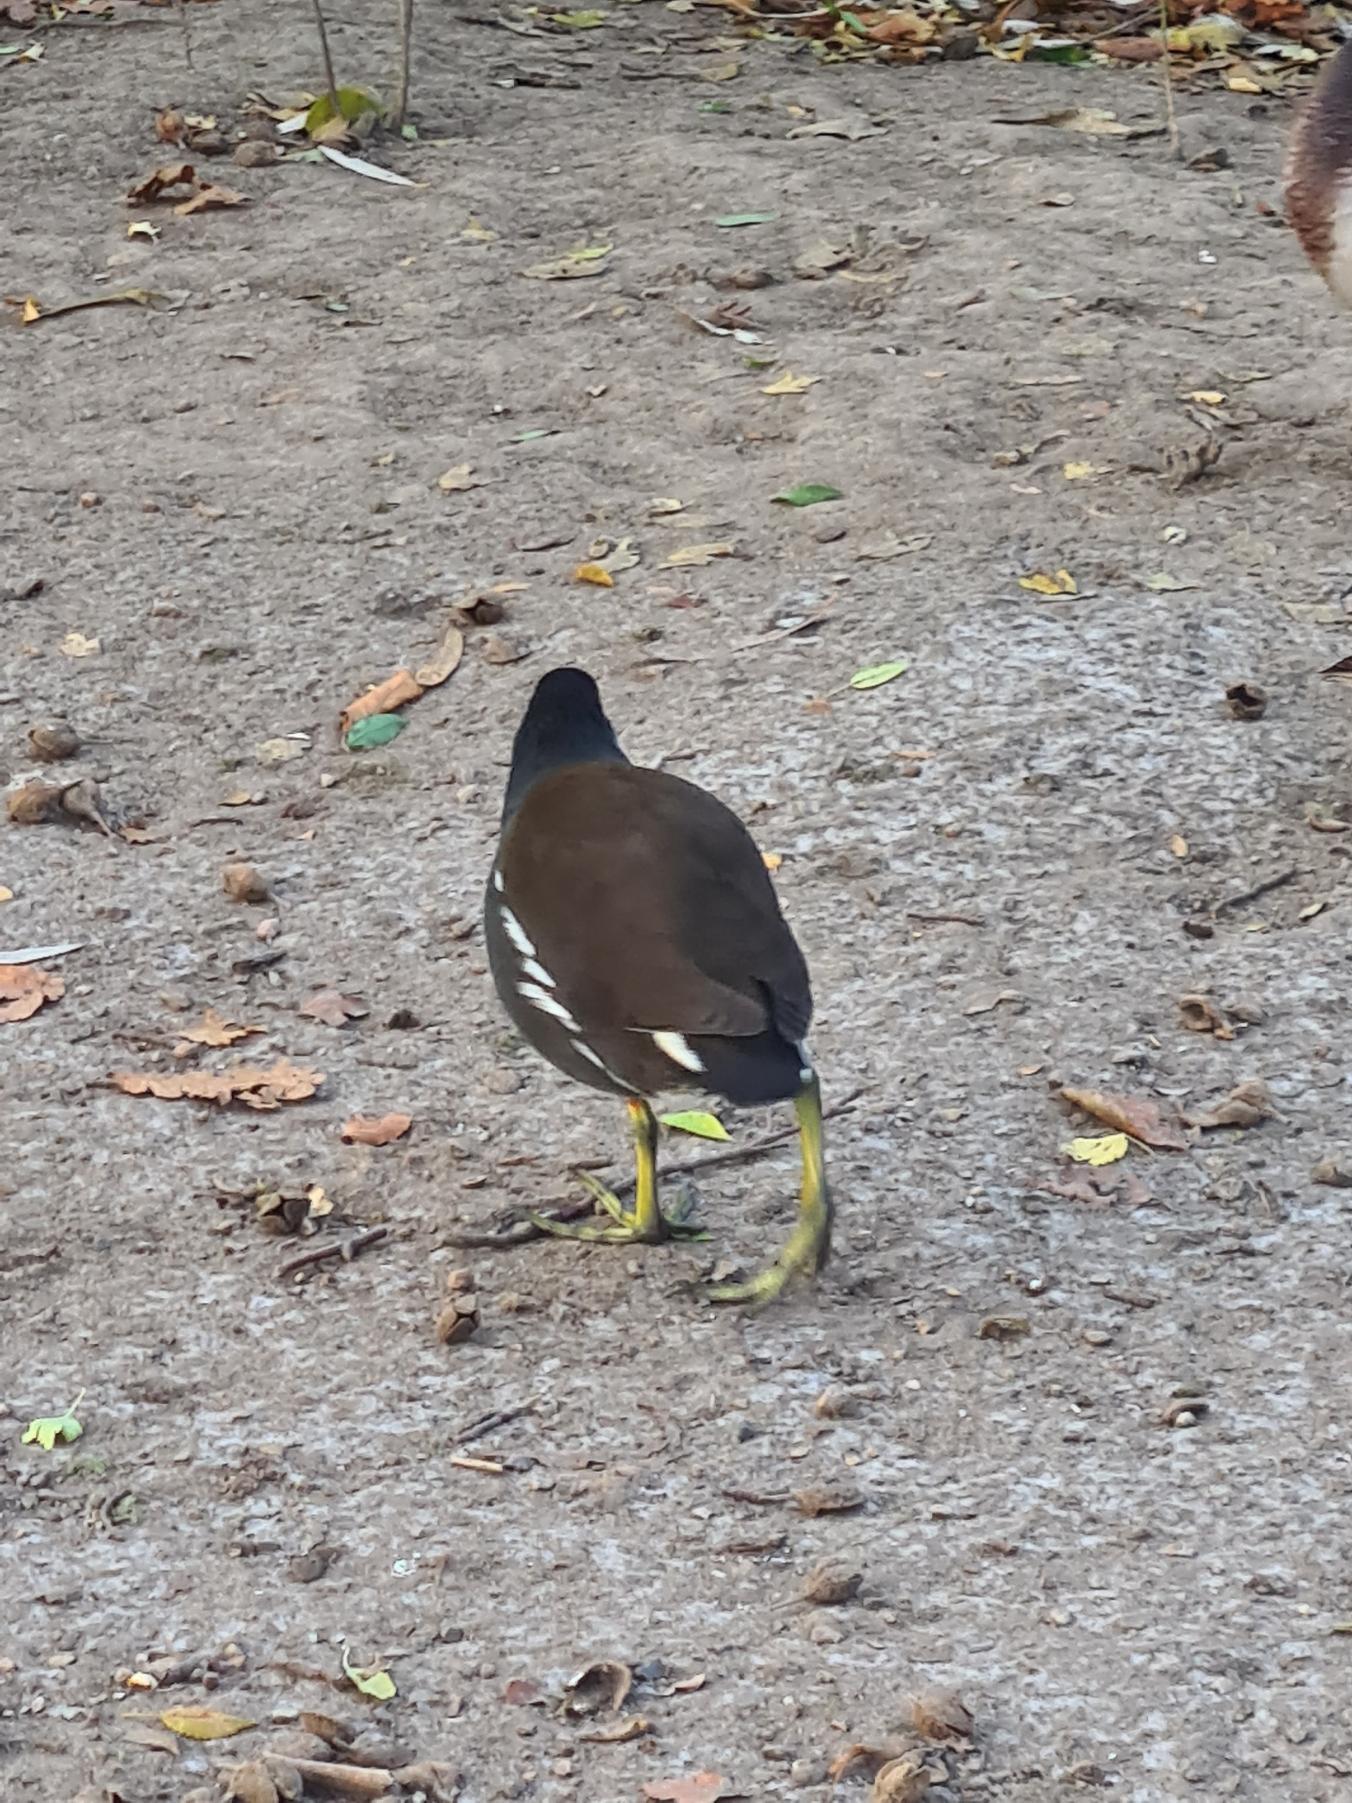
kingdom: Animalia
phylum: Chordata
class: Aves
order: Gruiformes
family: Rallidae
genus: Gallinula
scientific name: Gallinula chloropus
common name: Grønbenet rørhøne
